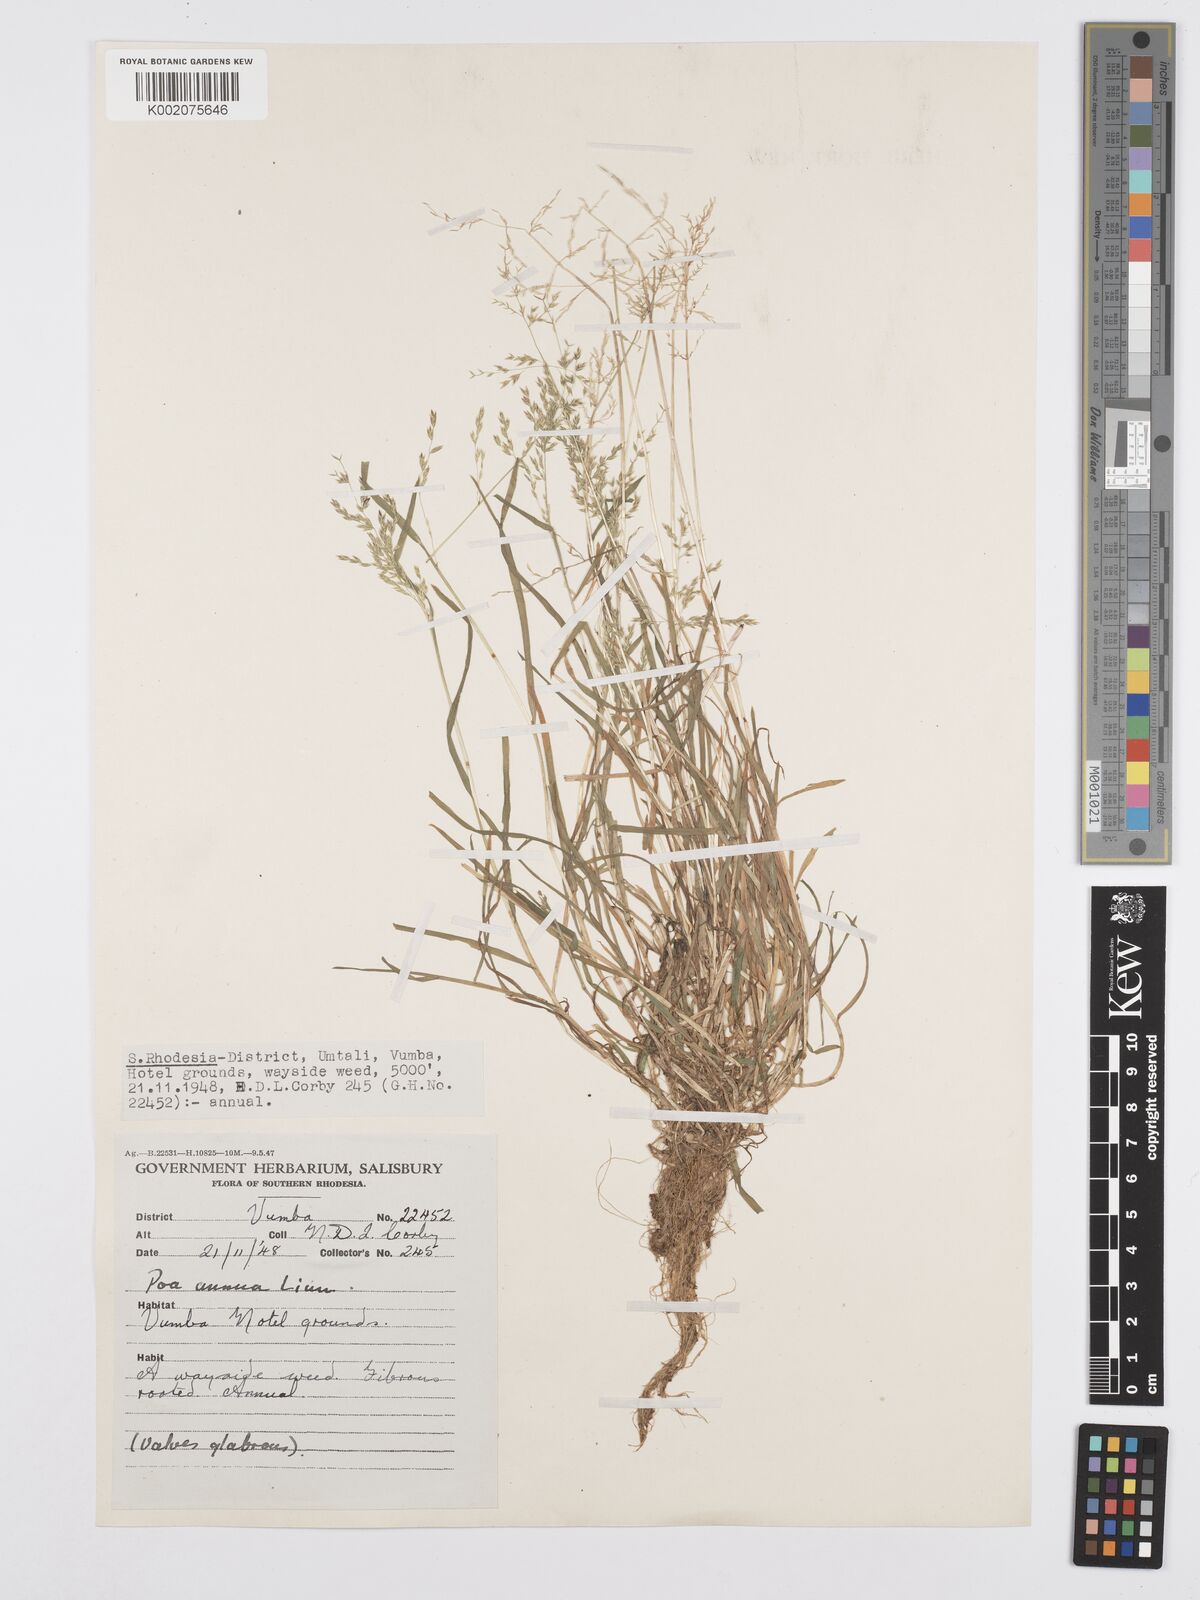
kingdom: Plantae
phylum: Tracheophyta
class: Liliopsida
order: Poales
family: Poaceae
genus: Poa
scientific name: Poa annua
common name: Annual bluegrass
